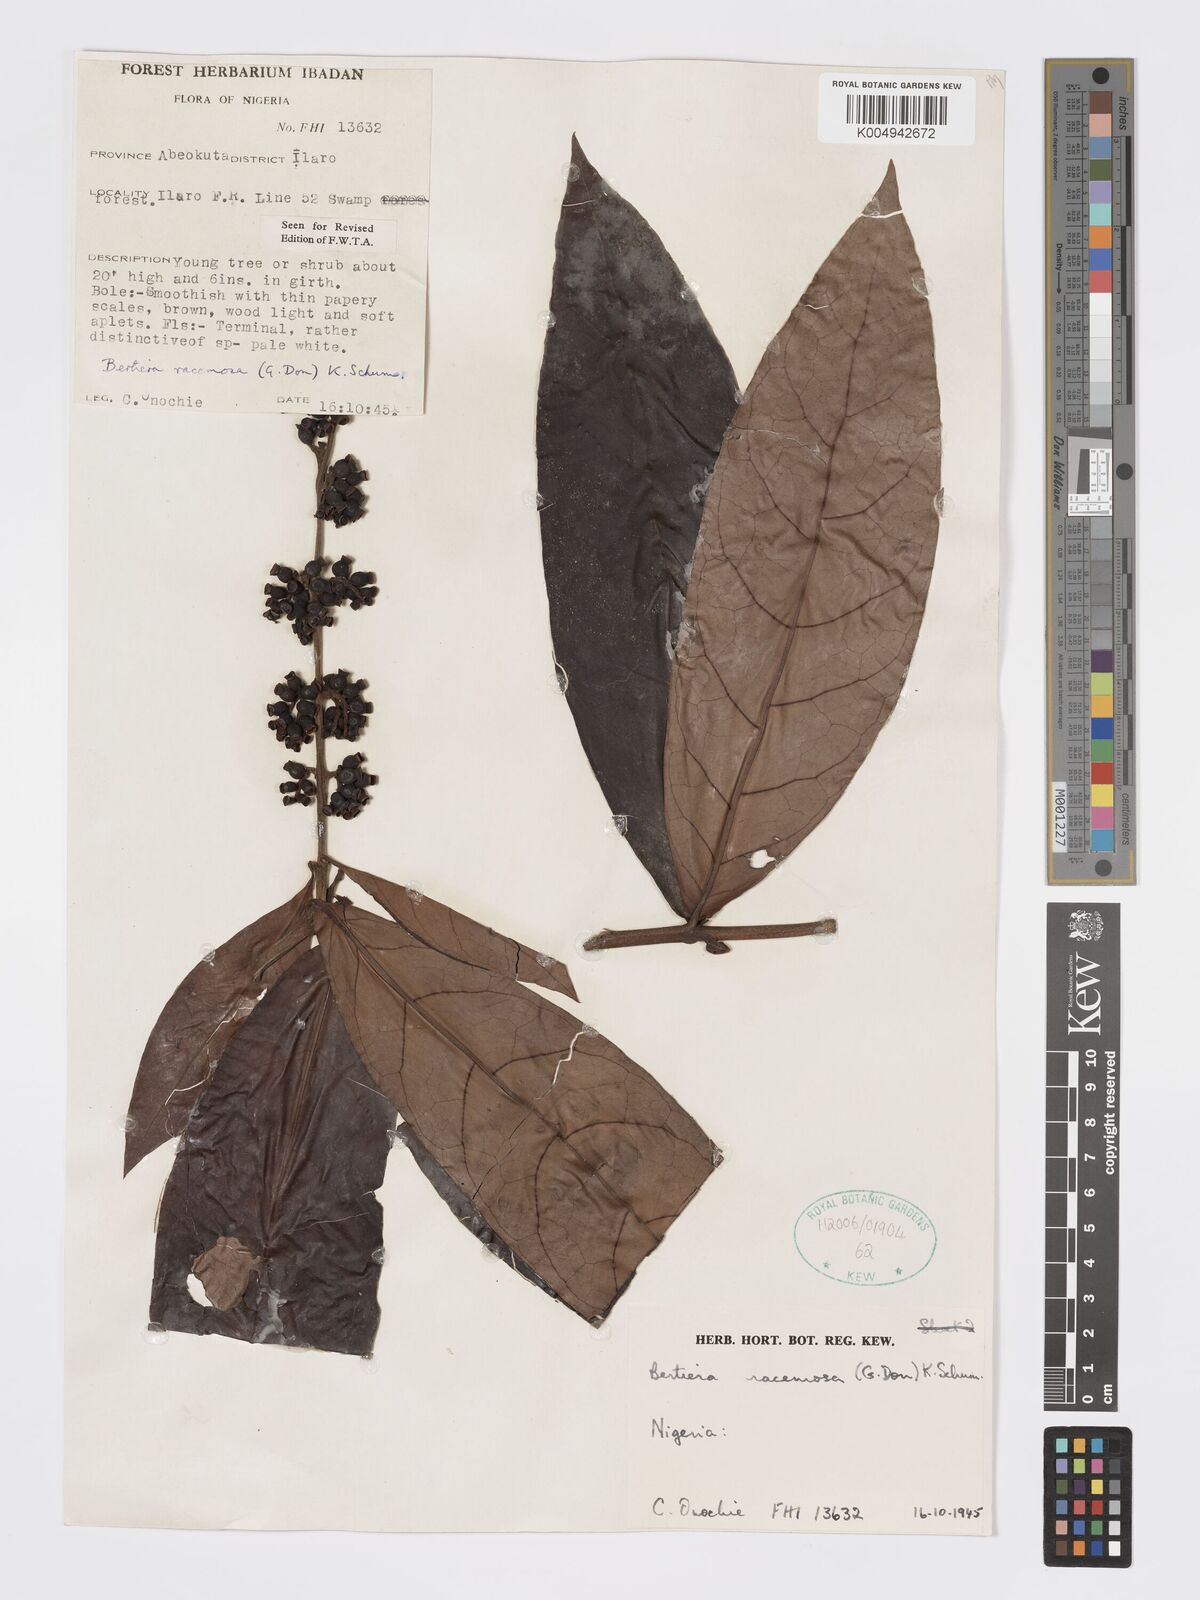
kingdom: Plantae
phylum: Tracheophyta
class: Magnoliopsida
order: Gentianales
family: Rubiaceae
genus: Bertiera
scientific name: Bertiera racemosa
